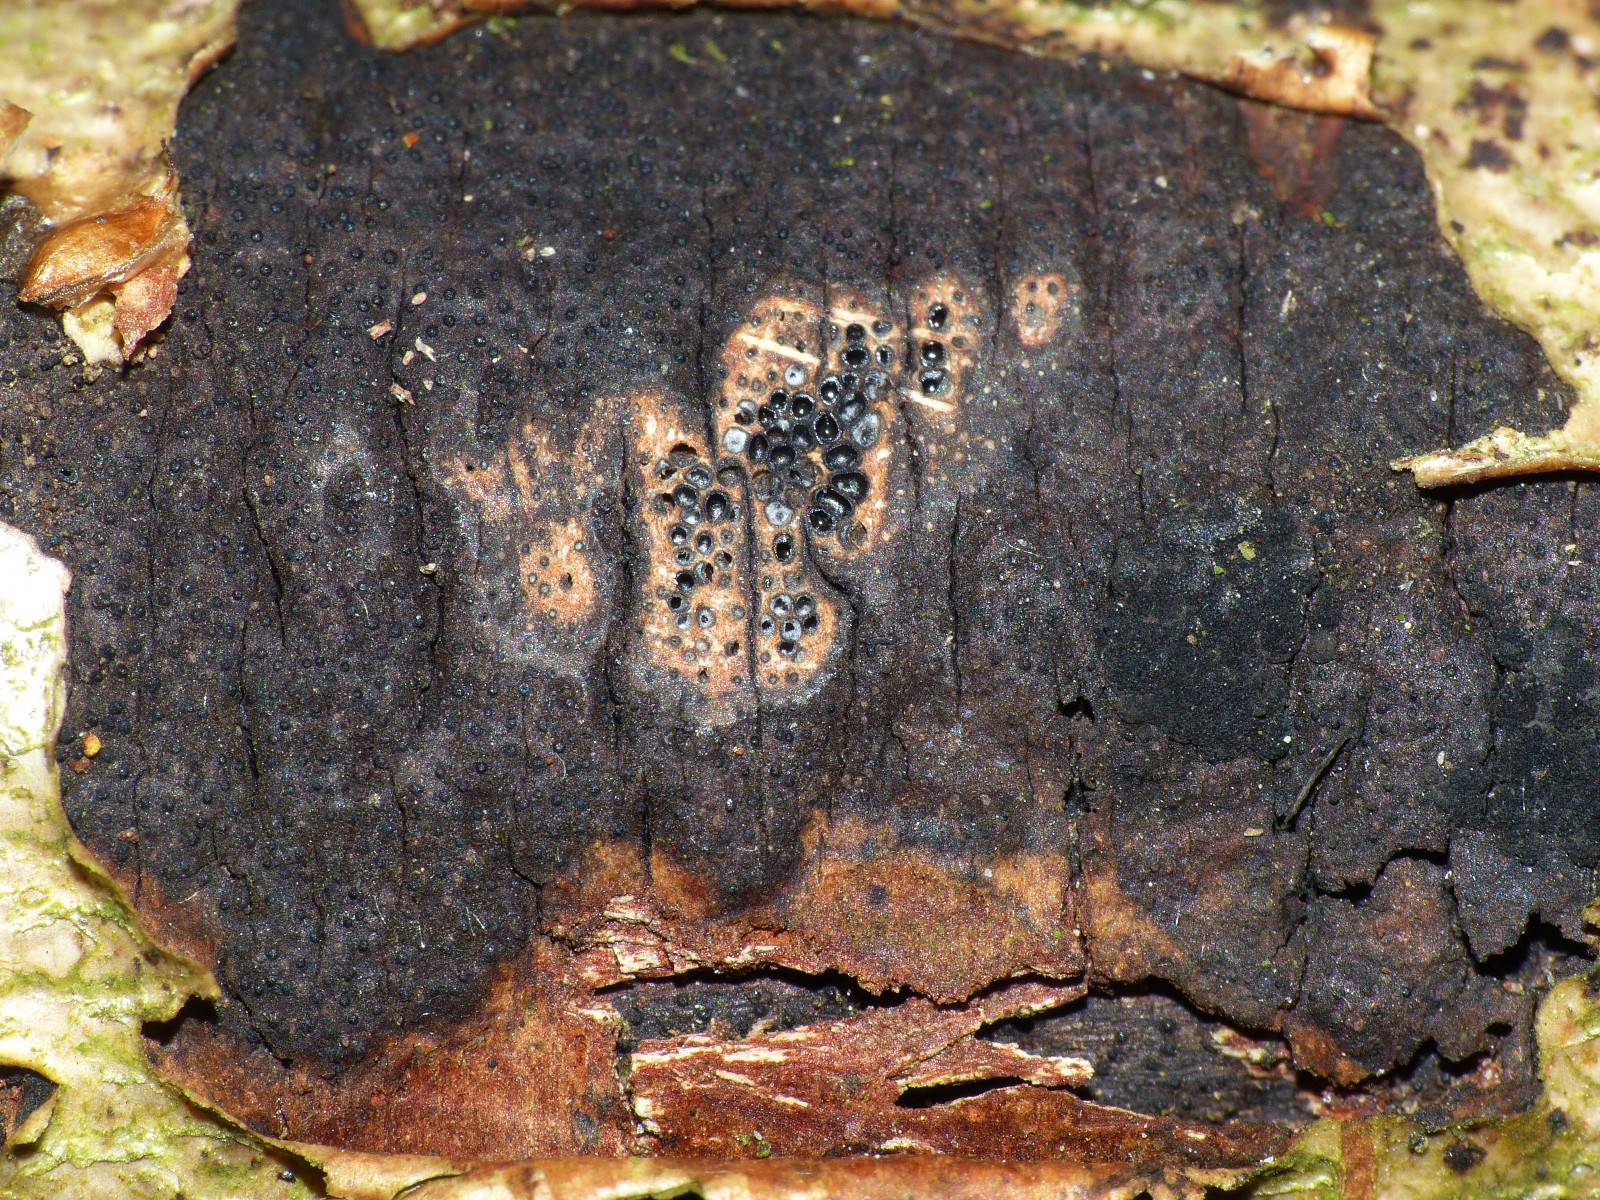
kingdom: Fungi
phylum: Ascomycota
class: Eurotiomycetes
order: Chaetothyriales
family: Herpotrichiellaceae
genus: Capronia
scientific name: Capronia nigerrima
